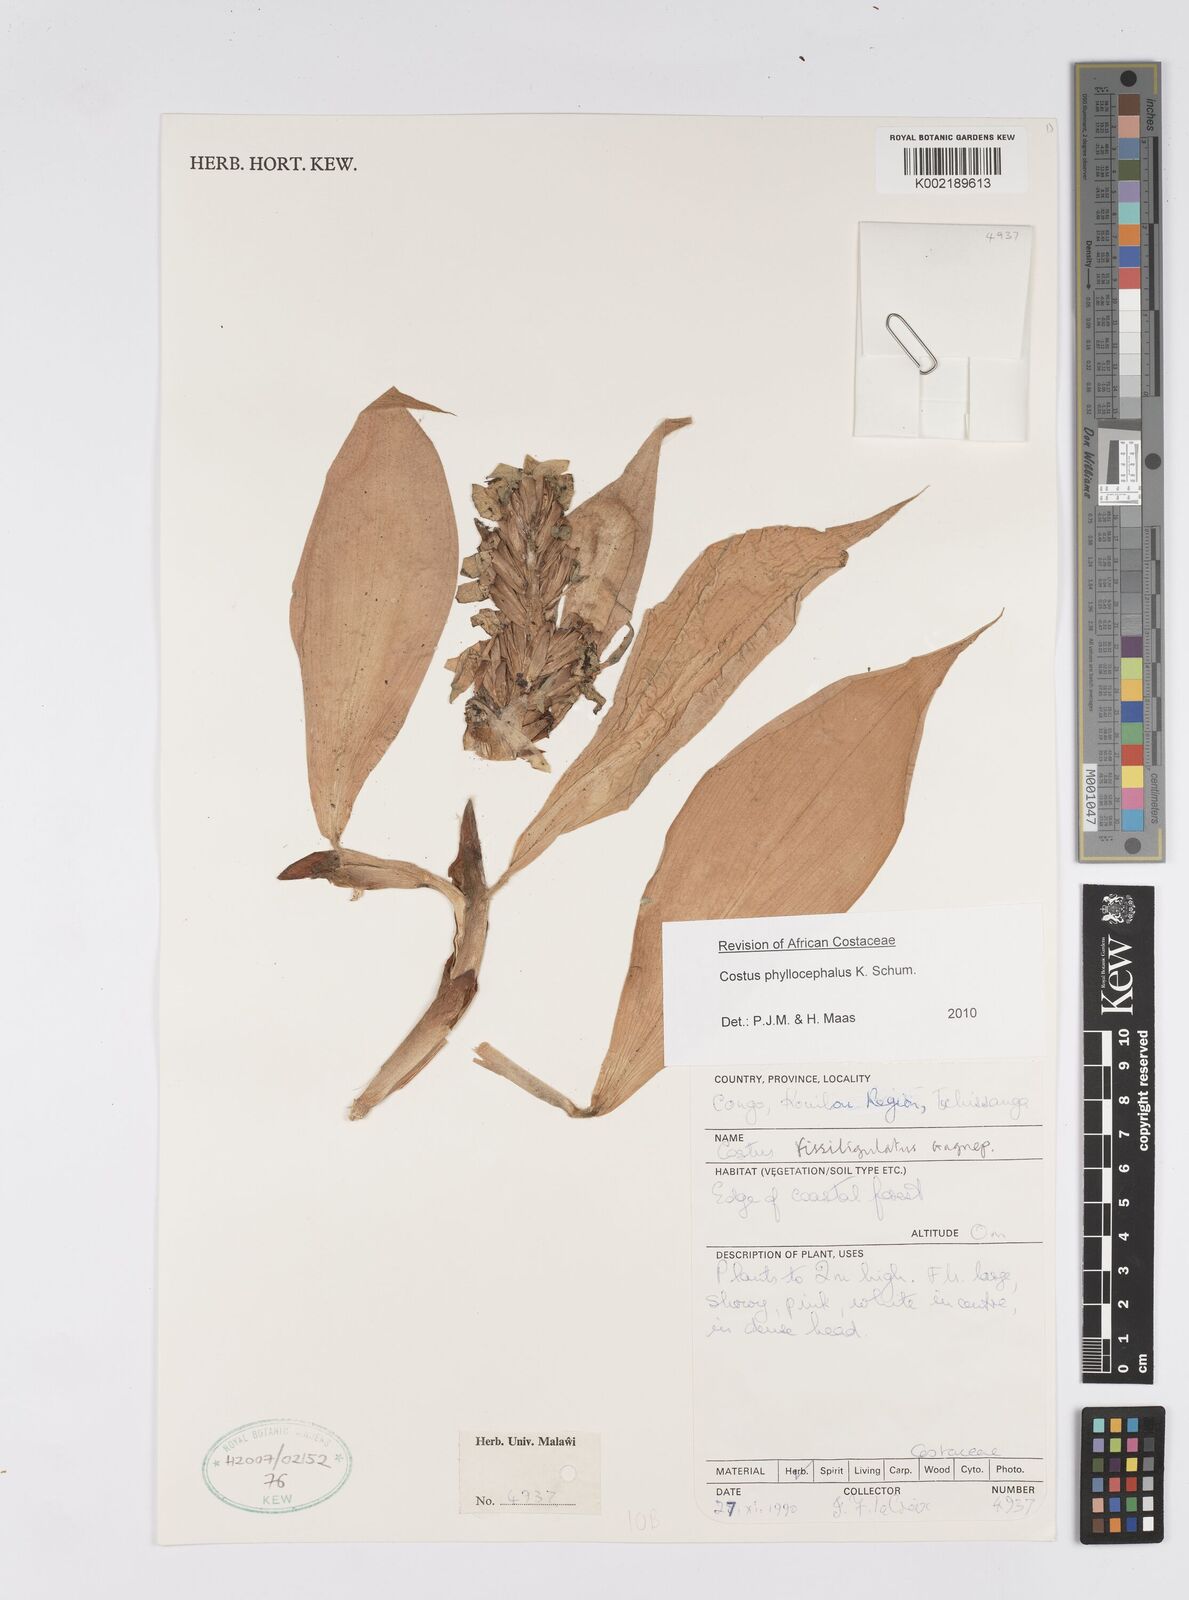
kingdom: Plantae
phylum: Tracheophyta
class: Liliopsida
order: Zingiberales
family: Costaceae
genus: Costus
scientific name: Costus phyllocephalus
